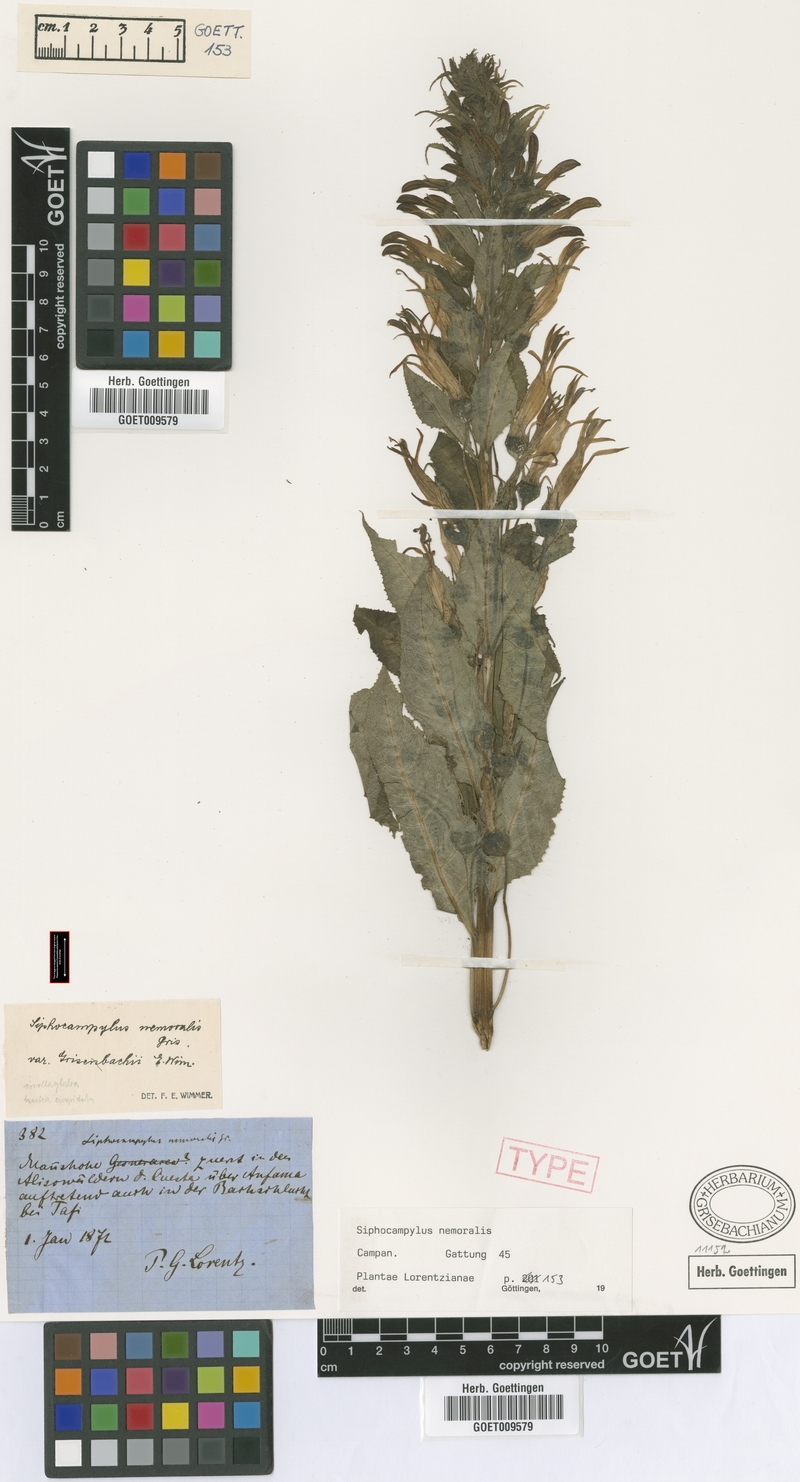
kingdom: Plantae
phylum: Tracheophyta
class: Magnoliopsida
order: Asterales
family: Campanulaceae
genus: Siphocampylus
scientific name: Siphocampylus nemoralis
